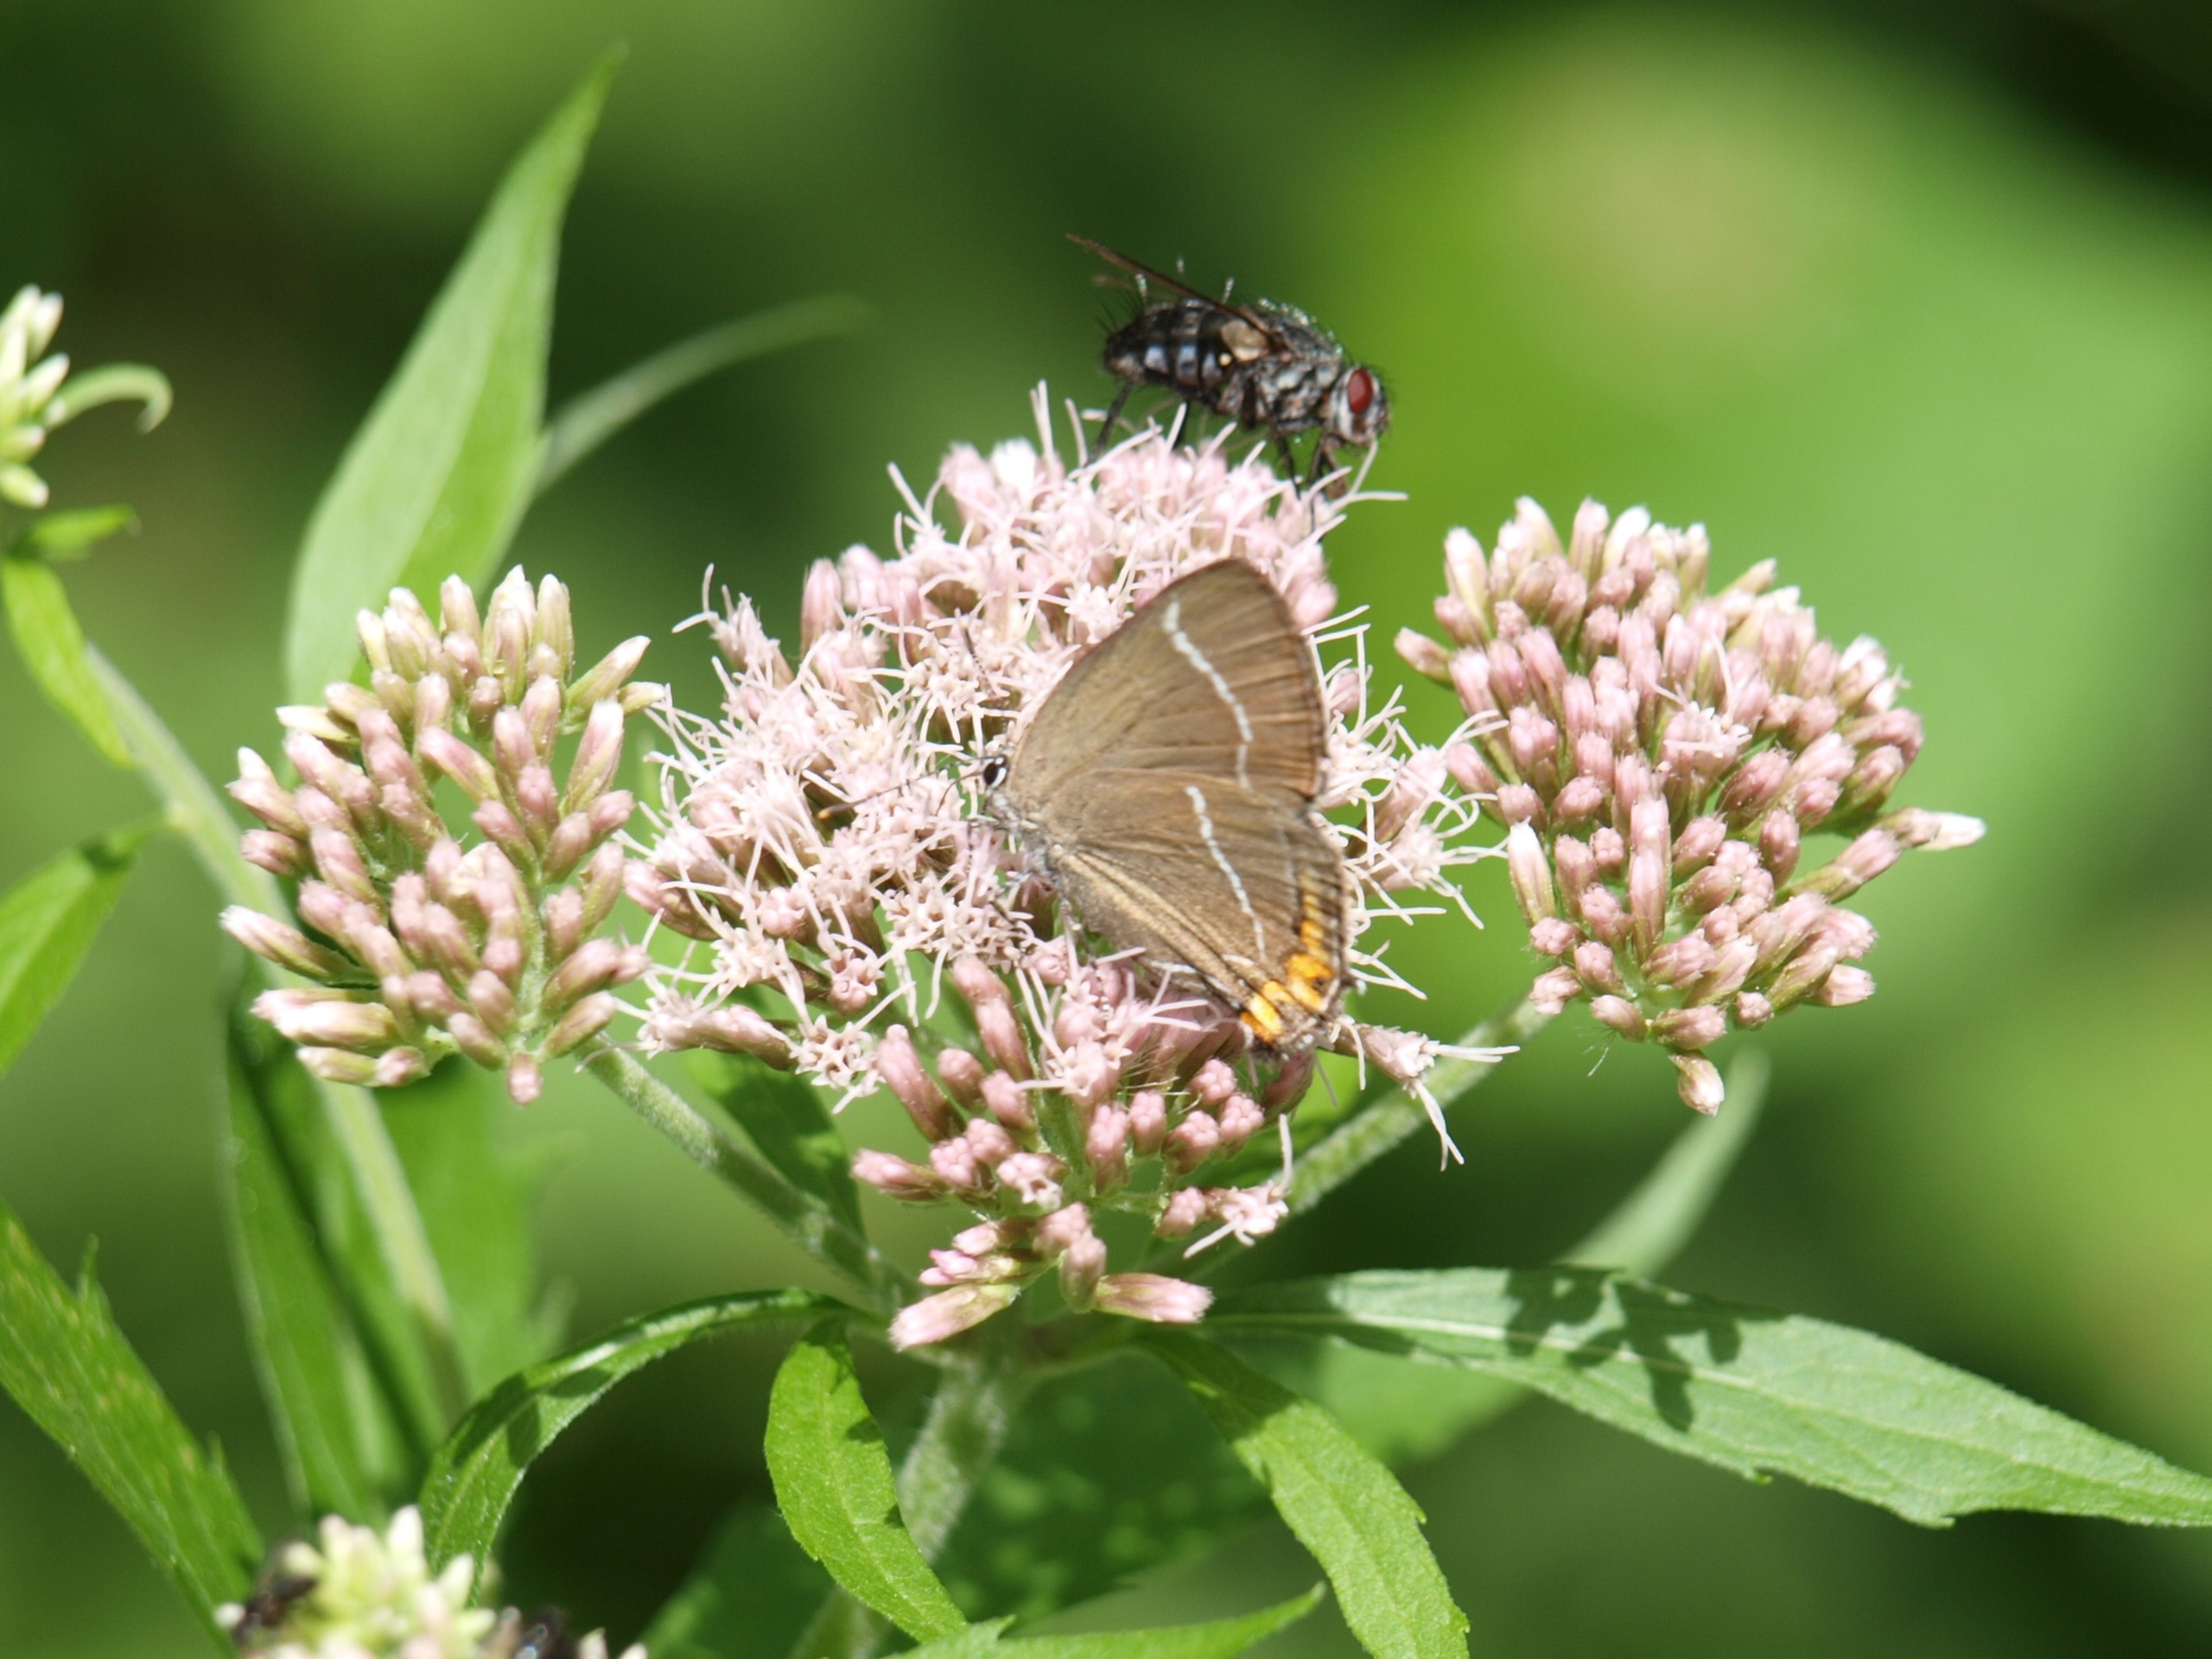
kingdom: Animalia
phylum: Arthropoda
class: Insecta
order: Lepidoptera
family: Lycaenidae
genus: Satyrium
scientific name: Satyrium w-album
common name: Det hvide W
